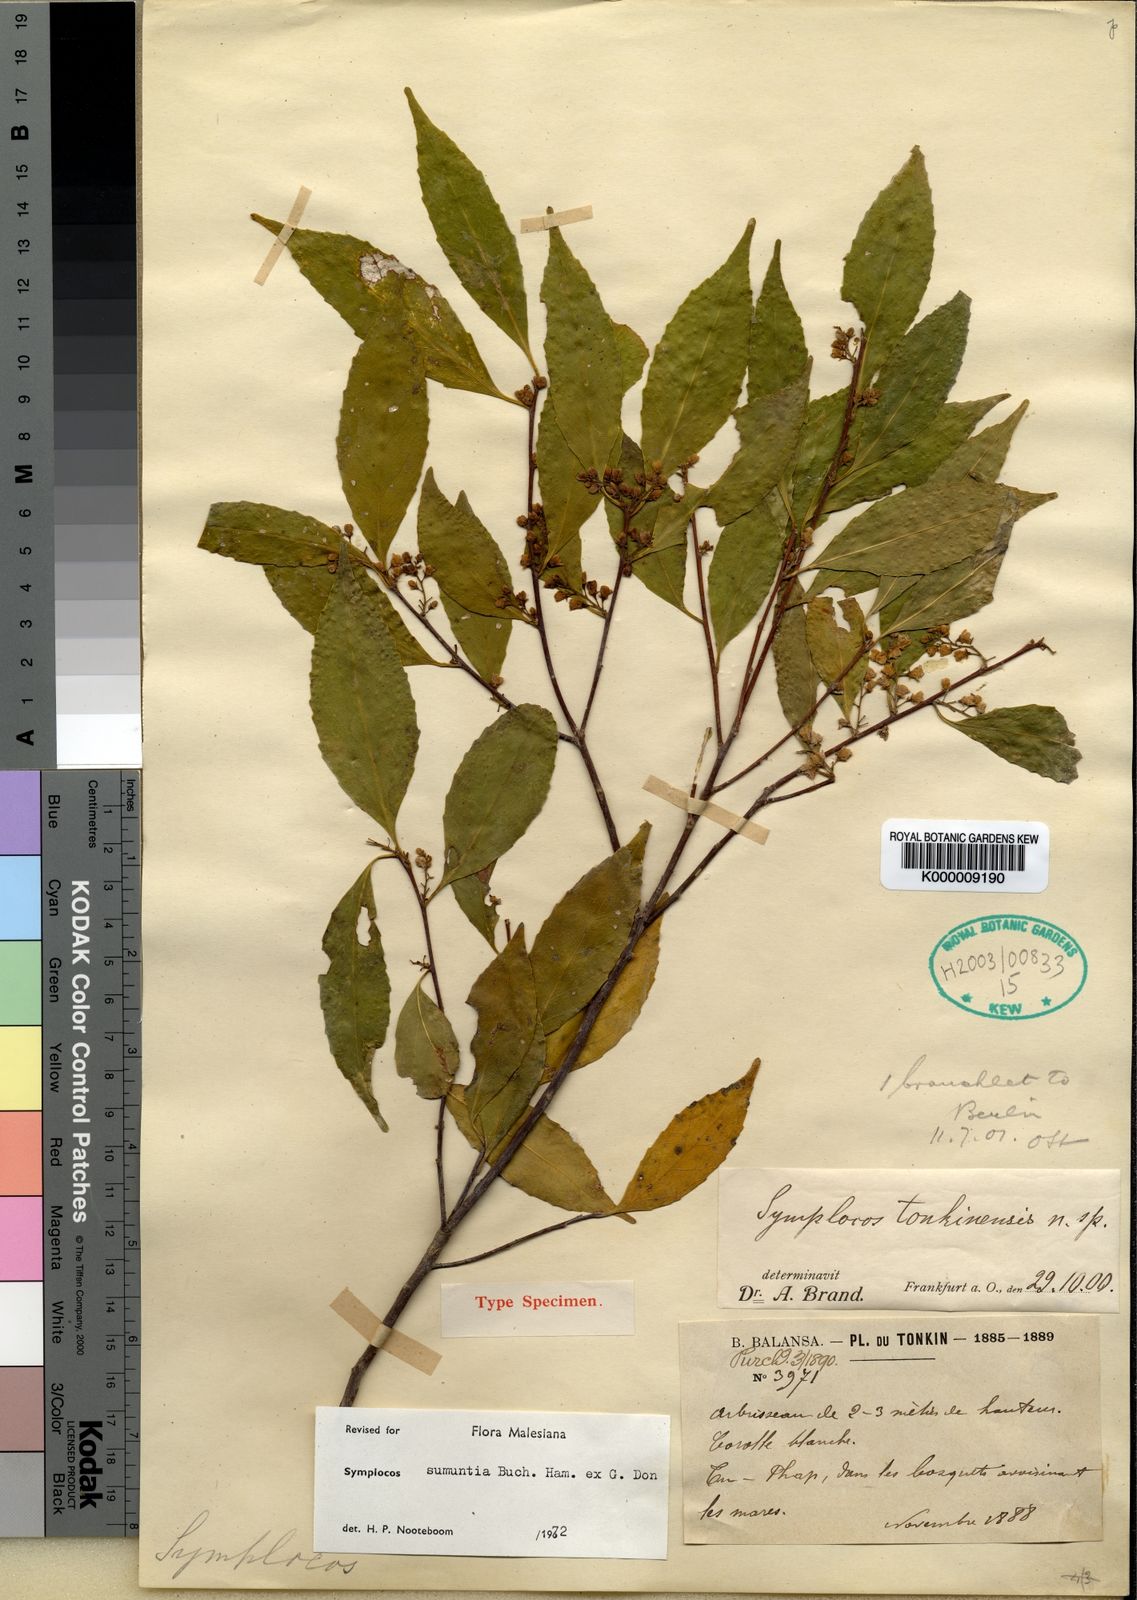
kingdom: Plantae
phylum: Tracheophyta
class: Magnoliopsida
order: Ericales
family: Symplocaceae
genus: Symplocos
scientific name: Symplocos sumuntia
